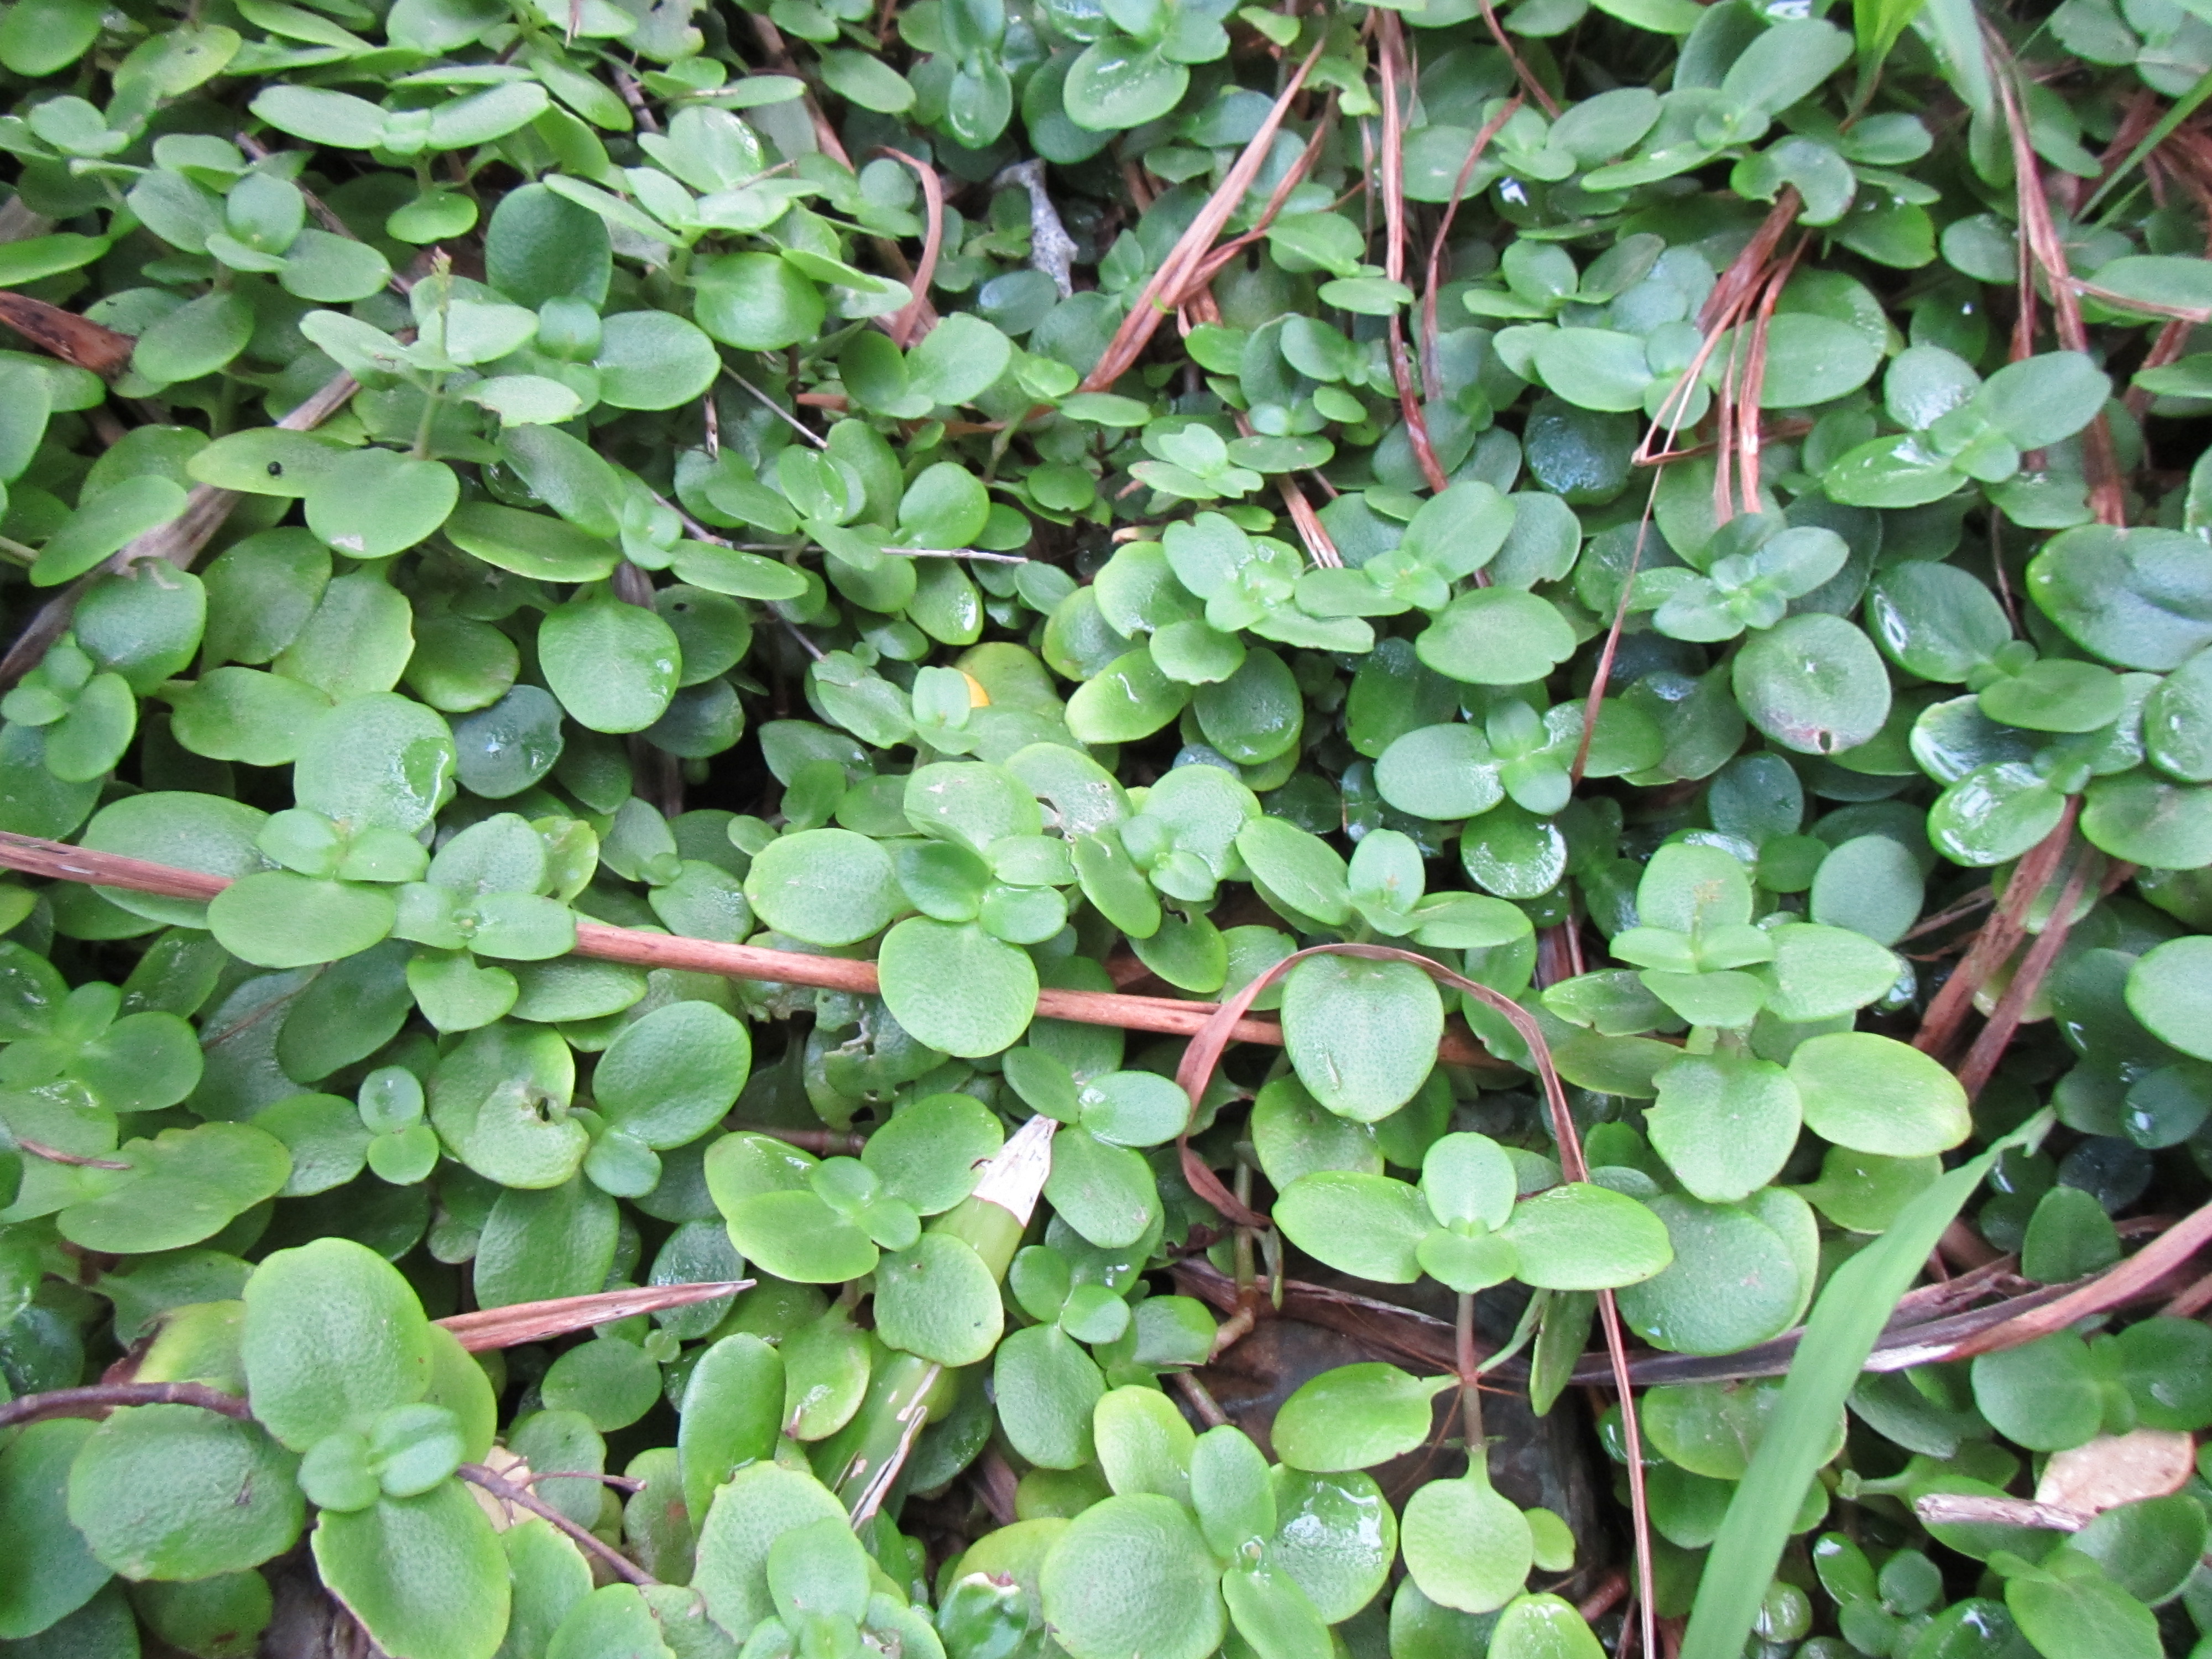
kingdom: Plantae
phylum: Tracheophyta
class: Magnoliopsida
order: Saxifragales
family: Crassulaceae
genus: Crassula
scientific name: Crassula multicava
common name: Cape province pygmyweed
